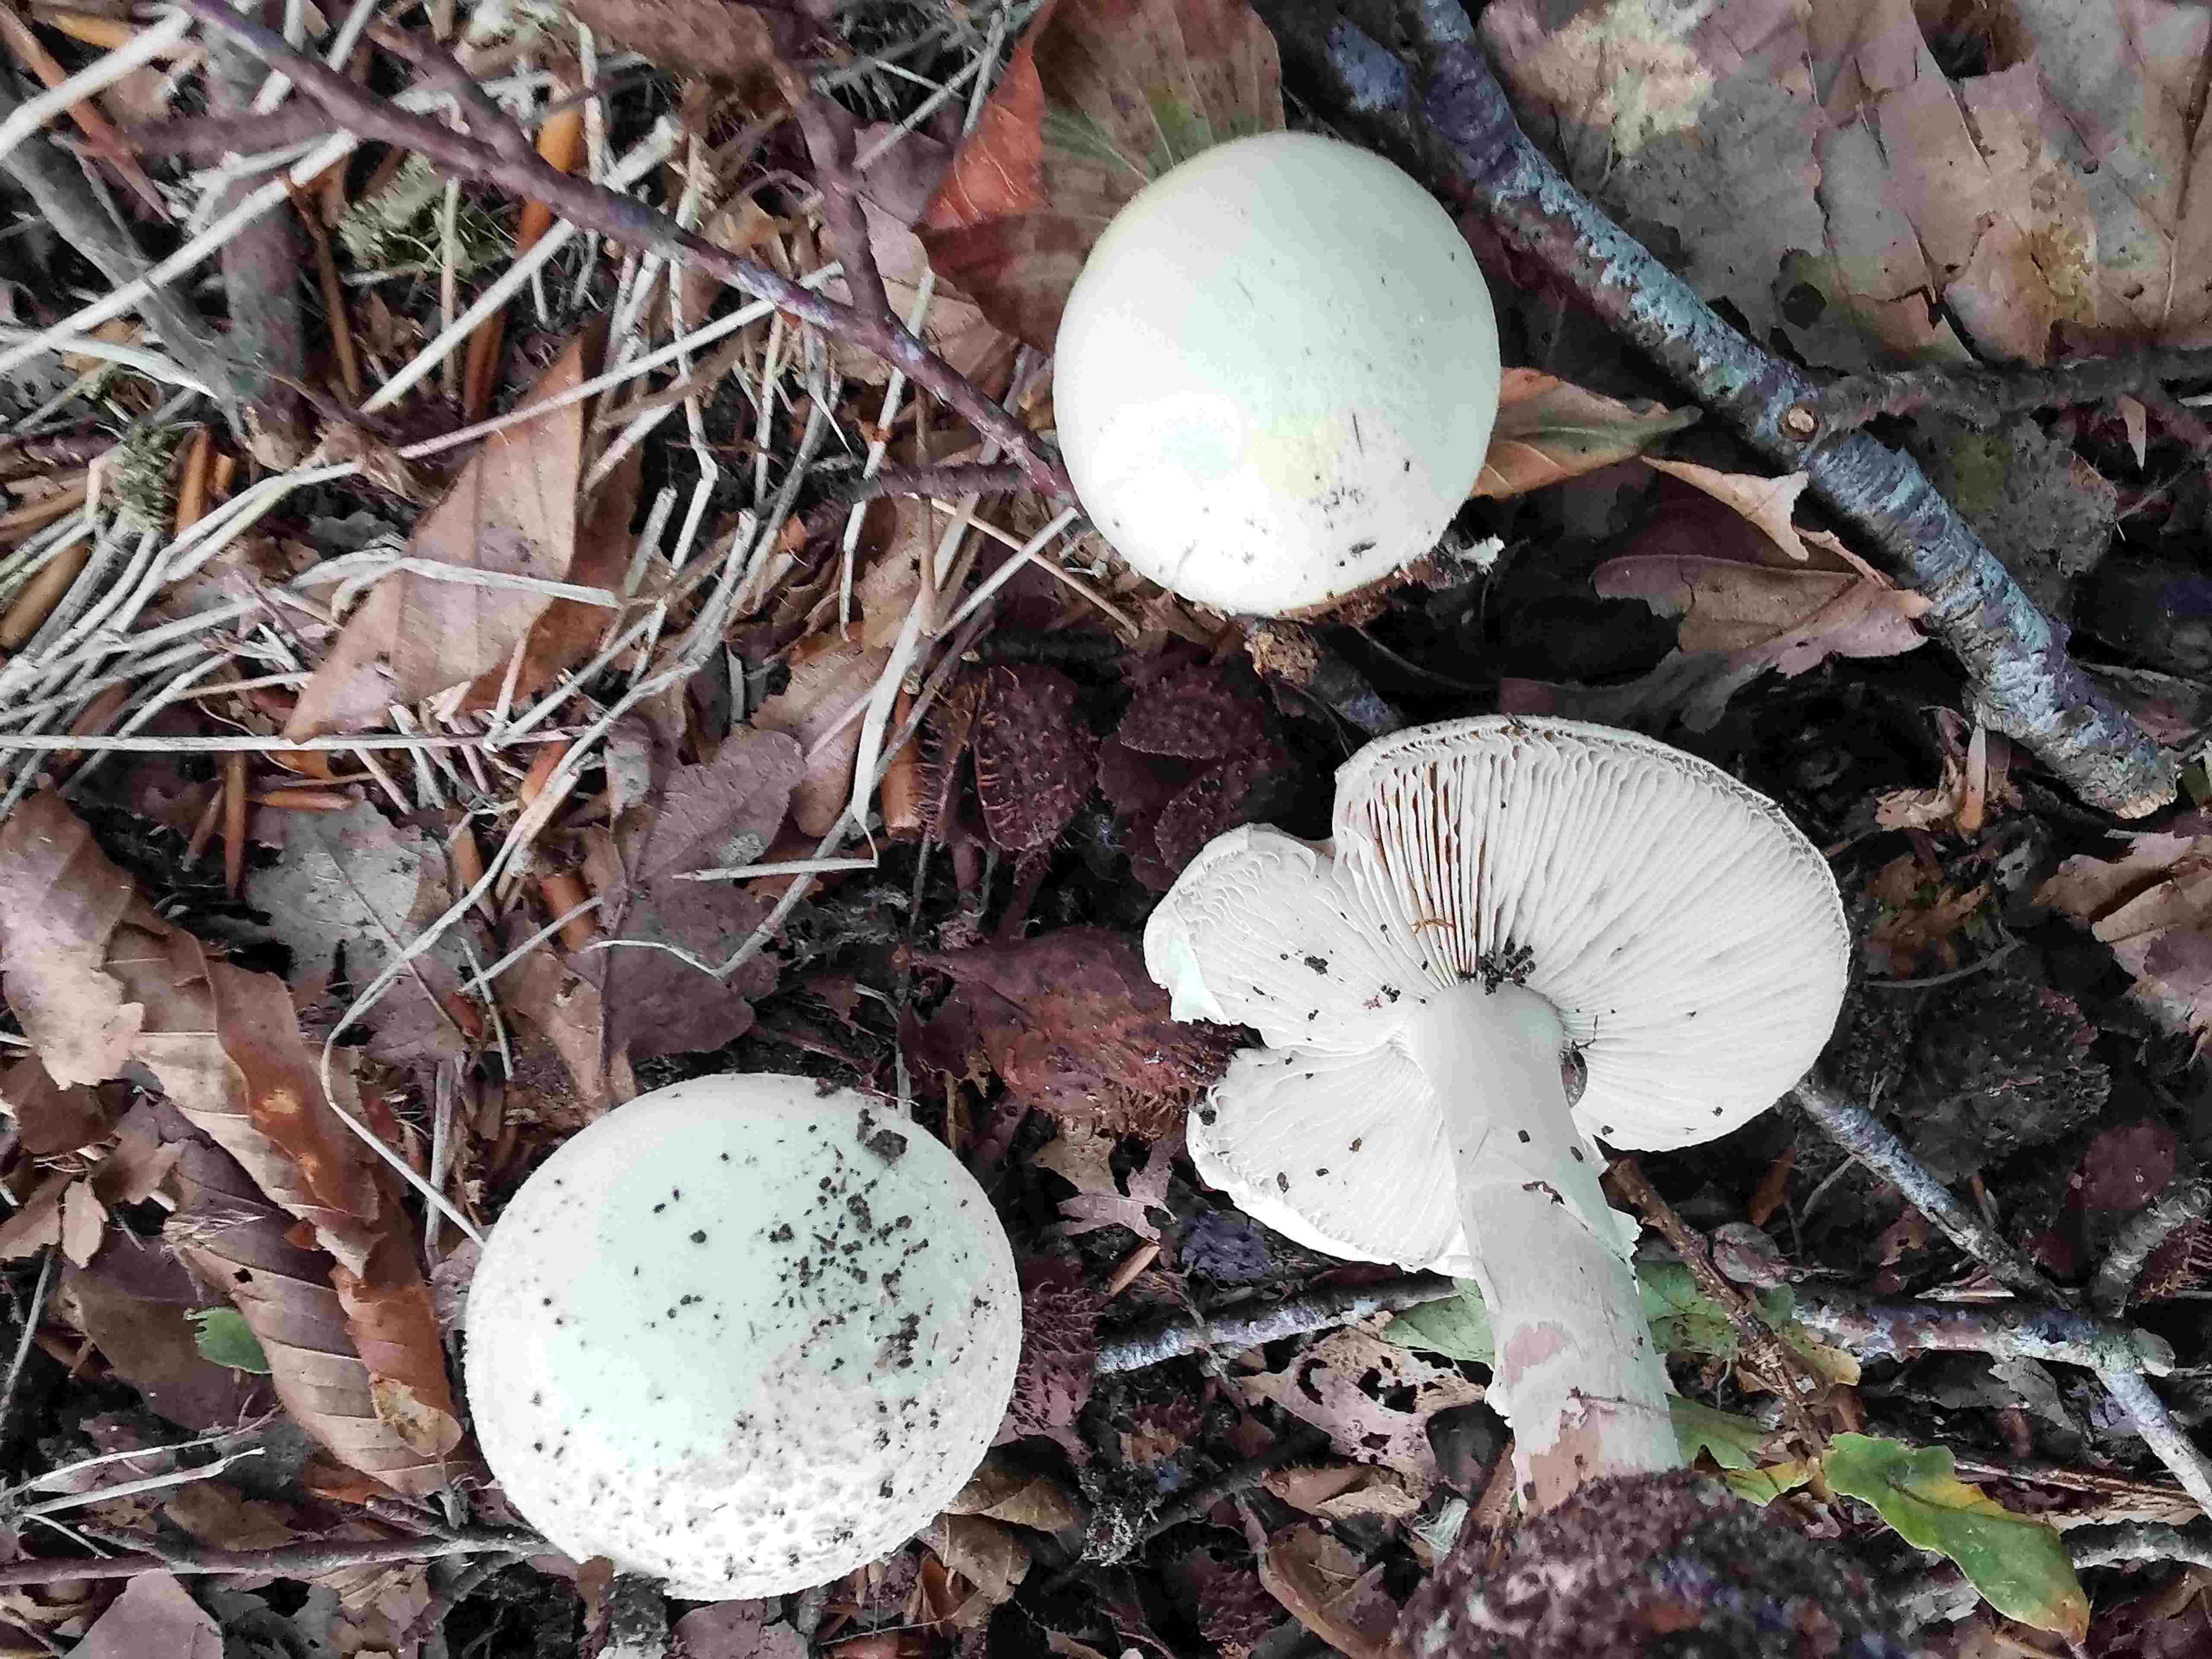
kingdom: Fungi
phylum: Basidiomycota
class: Agaricomycetes
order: Agaricales
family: Amanitaceae
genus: Amanita
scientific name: Amanita citrina
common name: kugleknoldet fluesvamp
